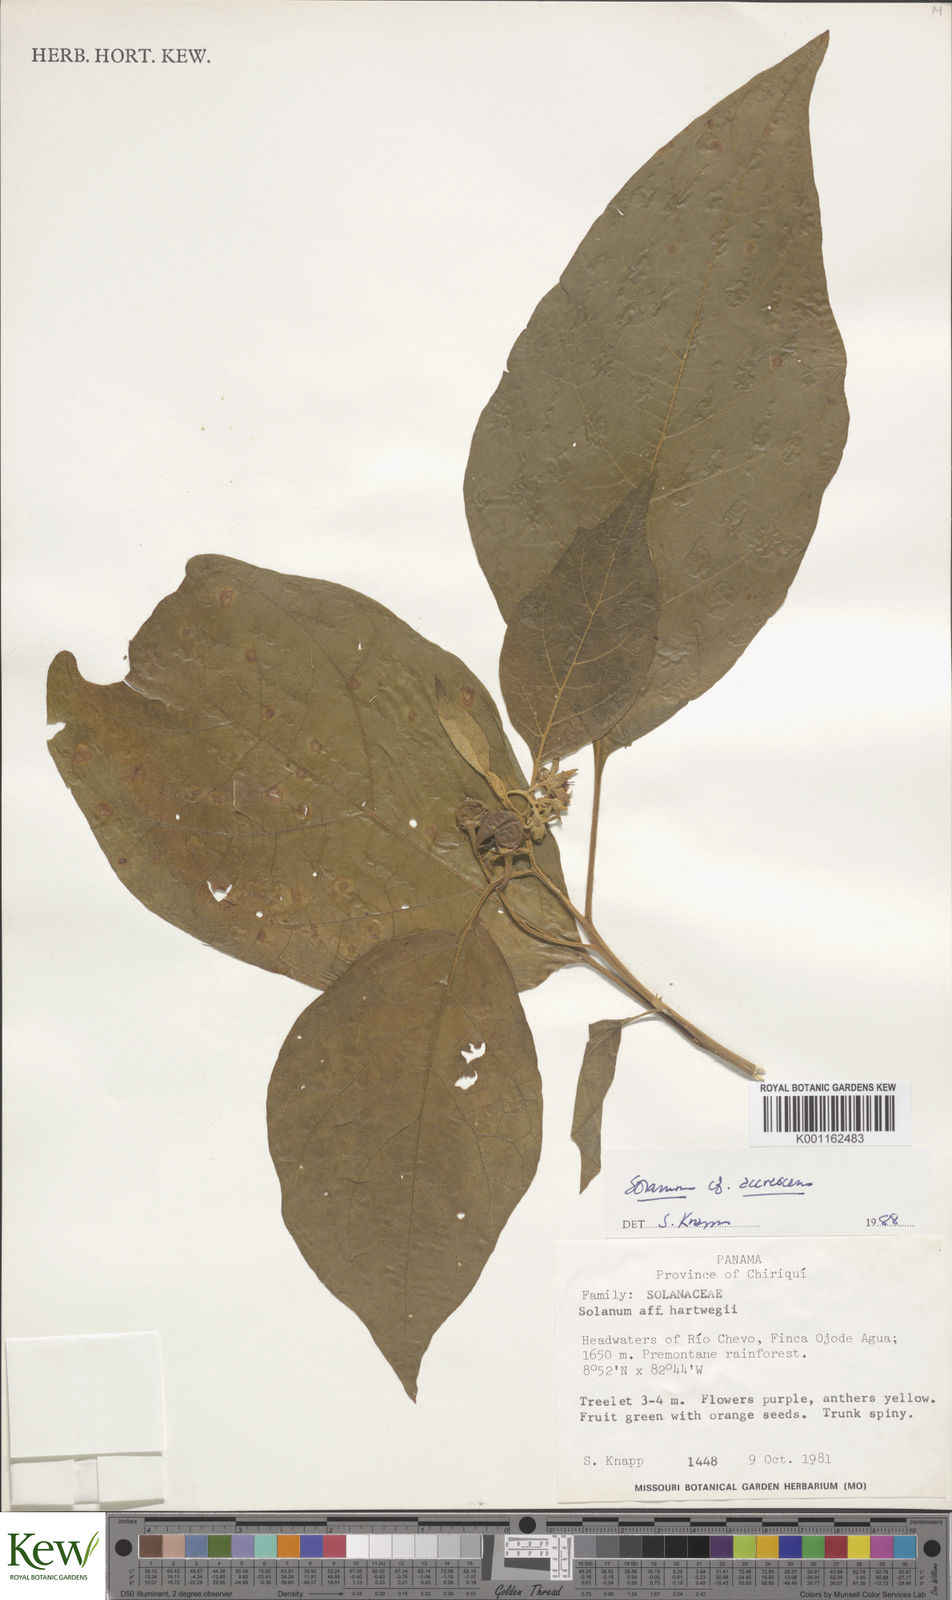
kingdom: Plantae
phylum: Tracheophyta
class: Magnoliopsida
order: Solanales
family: Solanaceae
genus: Solanum
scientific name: Solanum accrescens
